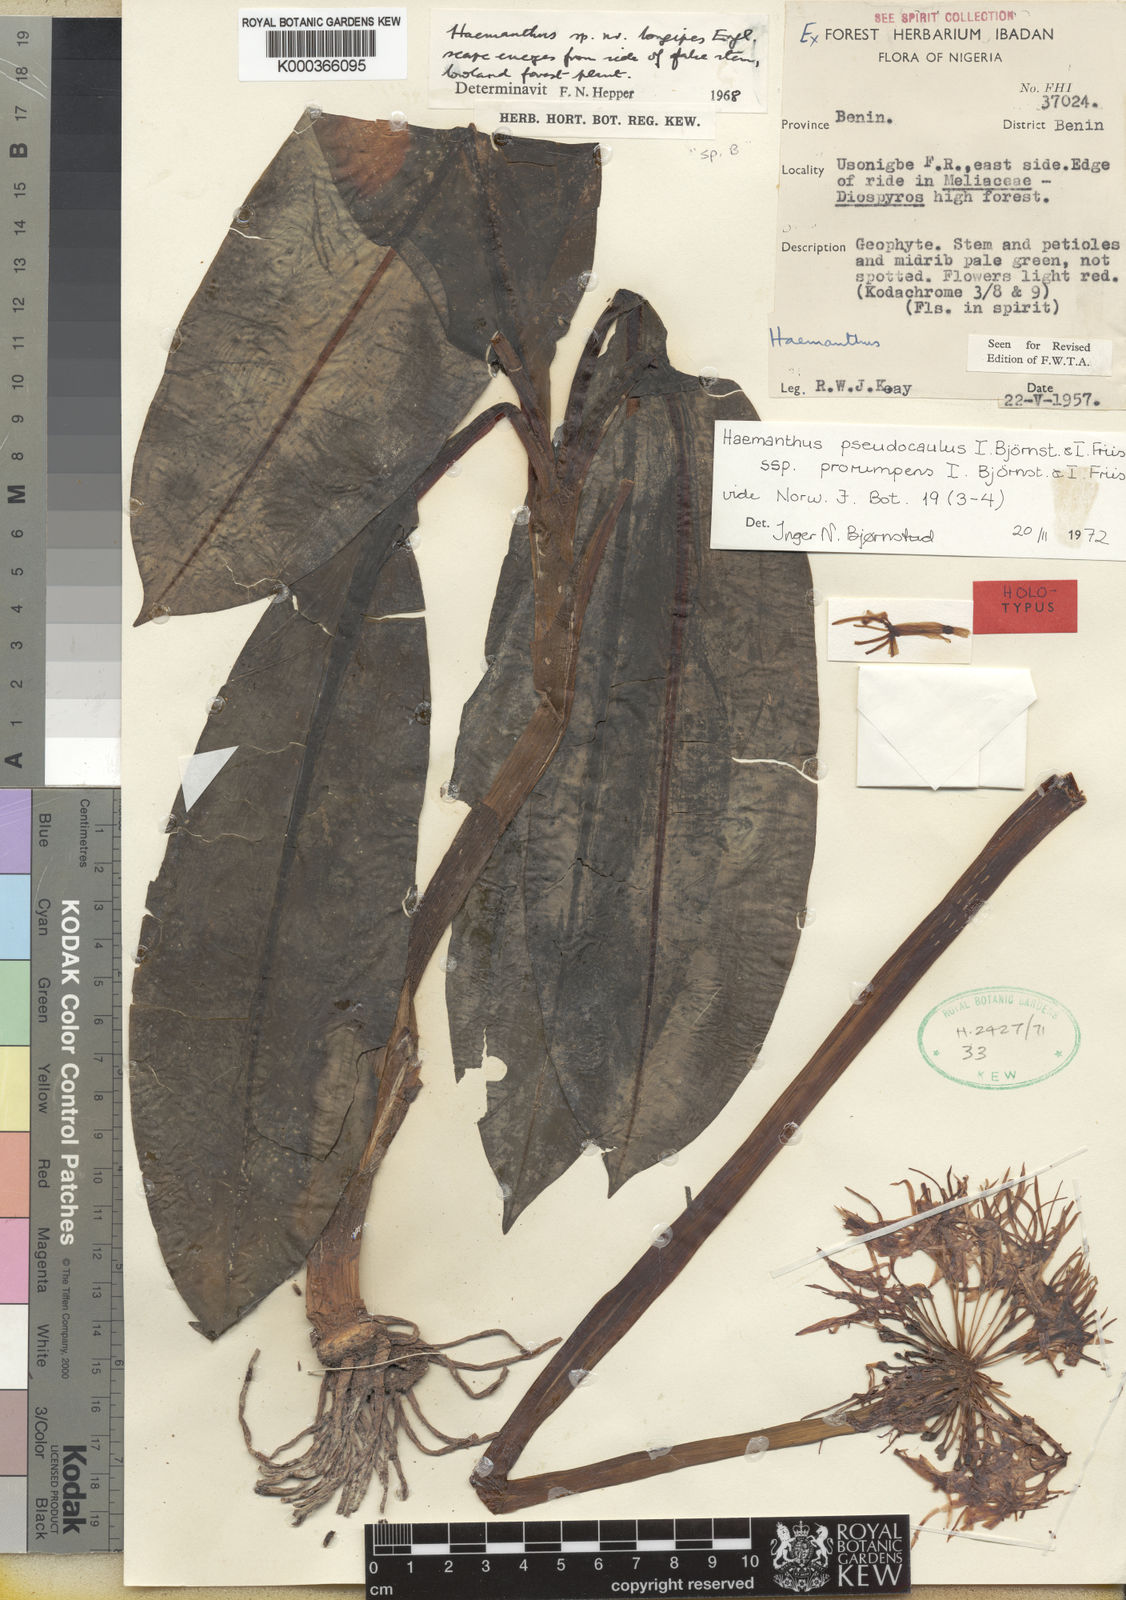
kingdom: Plantae
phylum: Tracheophyta
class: Liliopsida
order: Asparagales
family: Amaryllidaceae
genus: Scadoxus
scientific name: Scadoxus pseudocaulus
